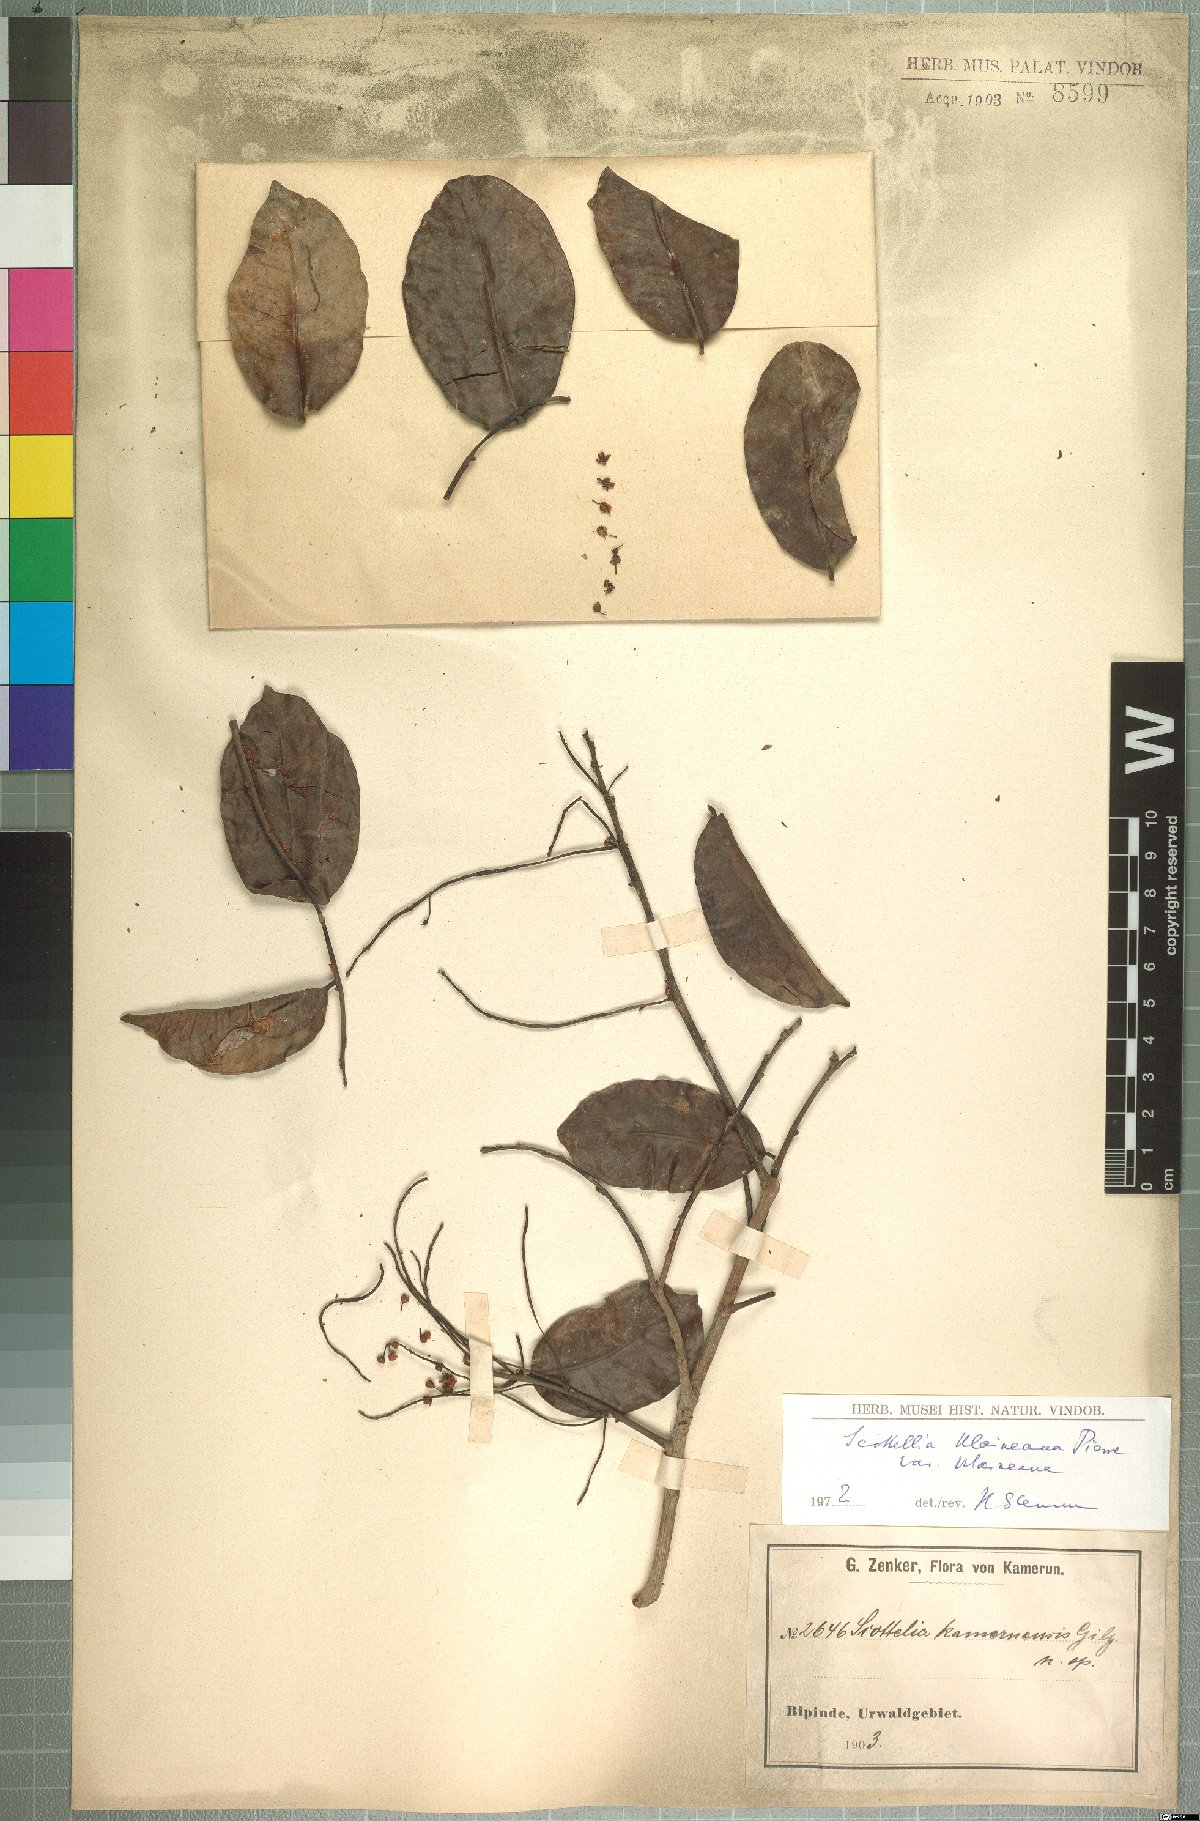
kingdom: Plantae
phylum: Tracheophyta
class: Magnoliopsida
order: Malpighiales
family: Achariaceae
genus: Scottellia
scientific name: Scottellia klaineana
